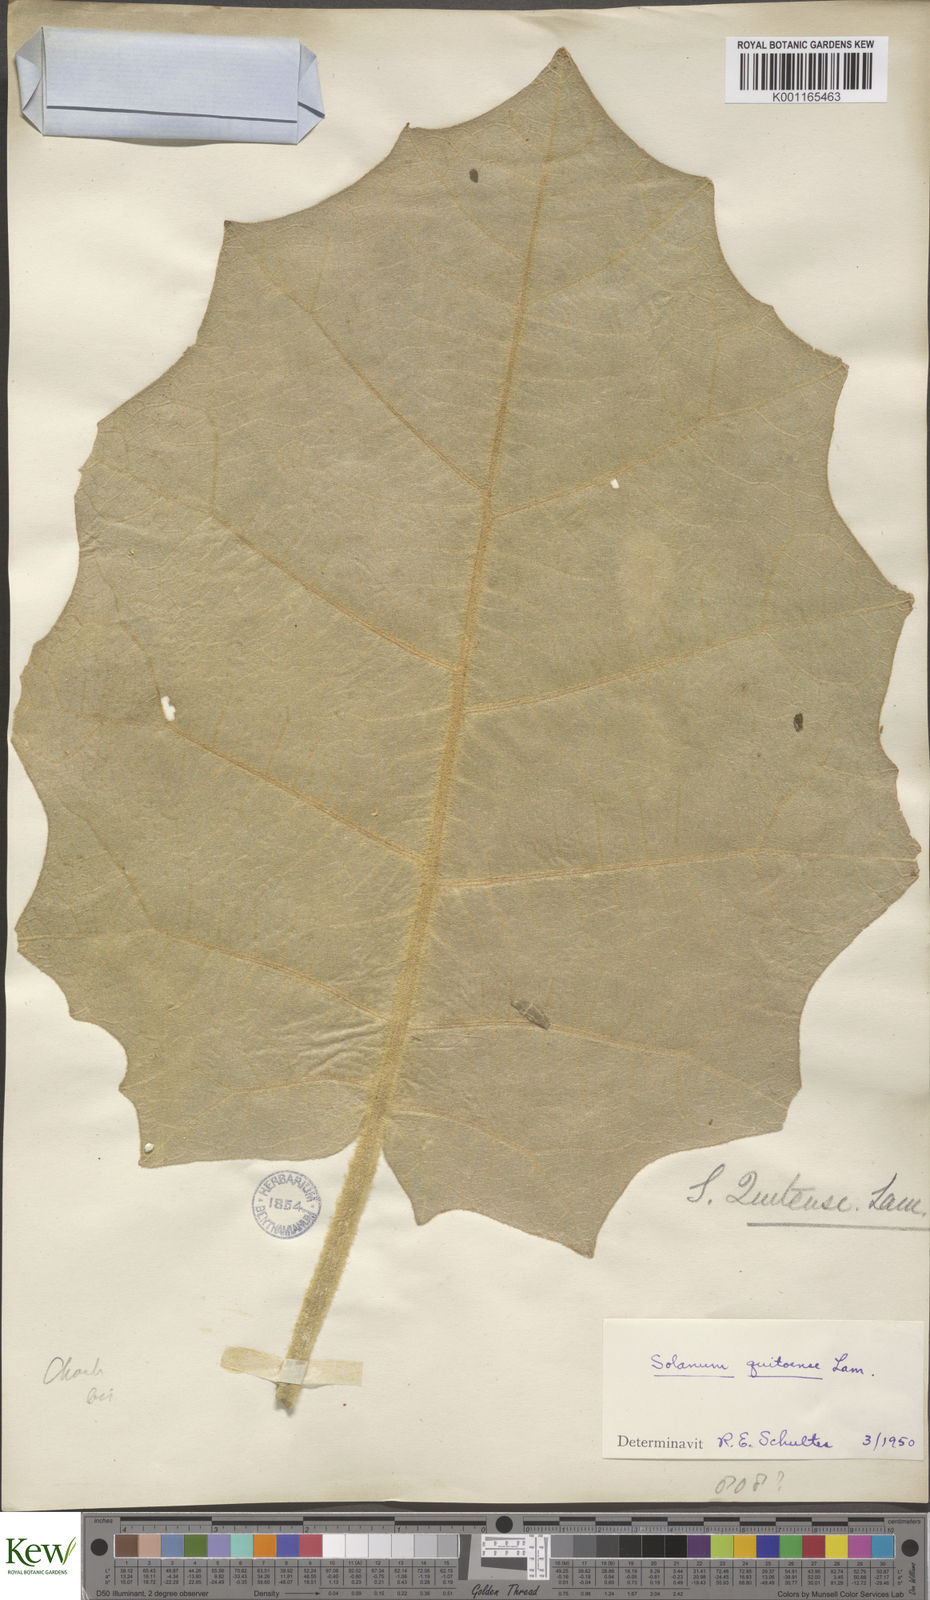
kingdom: Plantae
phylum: Tracheophyta
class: Magnoliopsida
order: Solanales
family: Solanaceae
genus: Solanum
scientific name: Solanum quitoense
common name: Quito-orange
